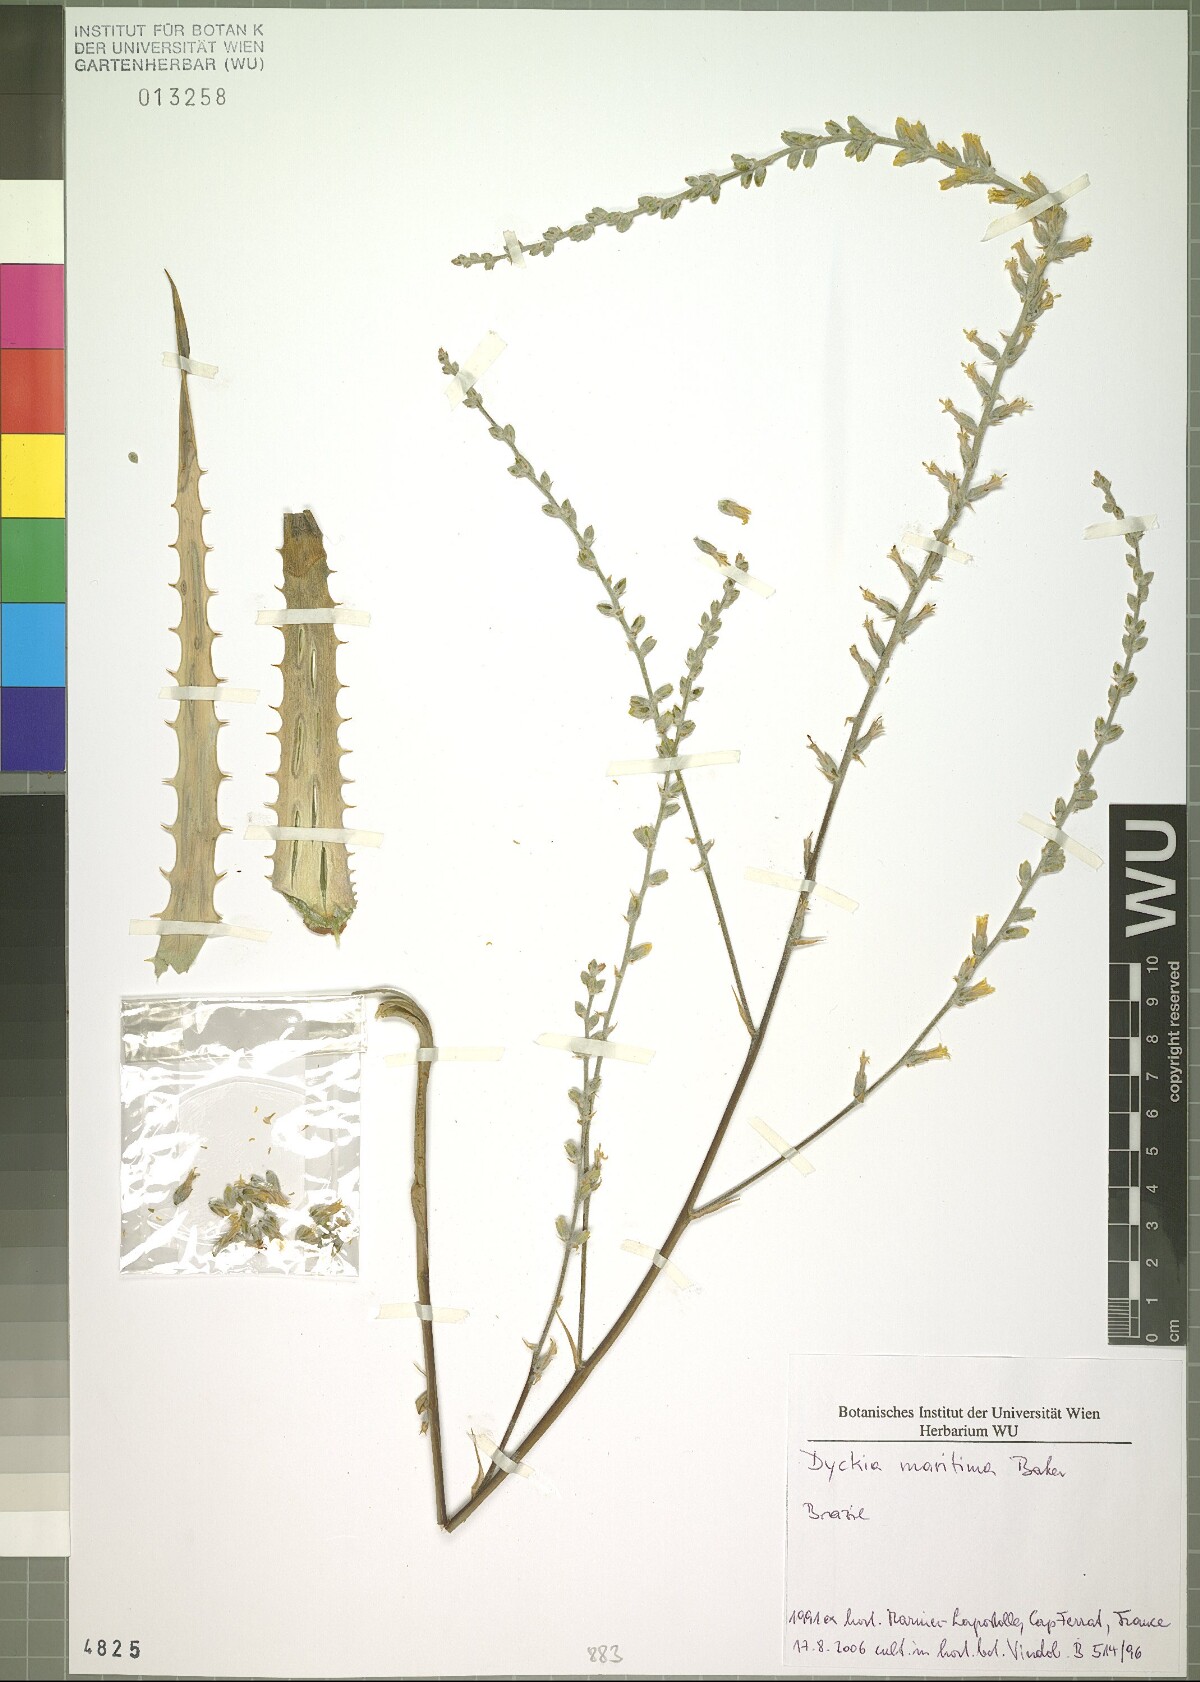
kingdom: Plantae
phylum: Tracheophyta
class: Liliopsida
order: Poales
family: Bromeliaceae
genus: Dyckia
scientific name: Dyckia maritima
